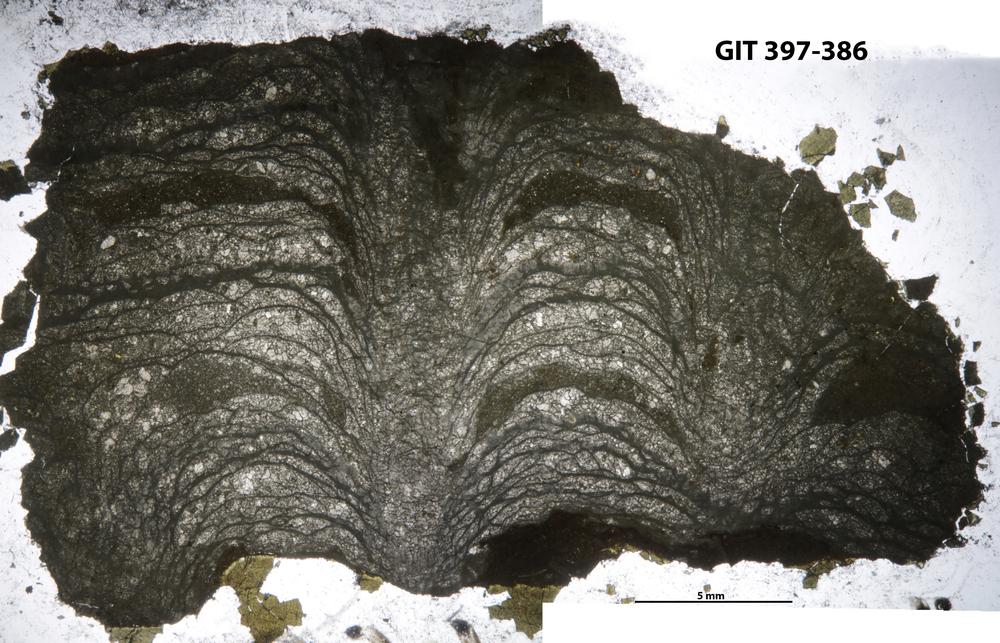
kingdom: Animalia
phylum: Cnidaria
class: Anthozoa
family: Arachnophyllidae
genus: Prodarwinia
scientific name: Prodarwinia
